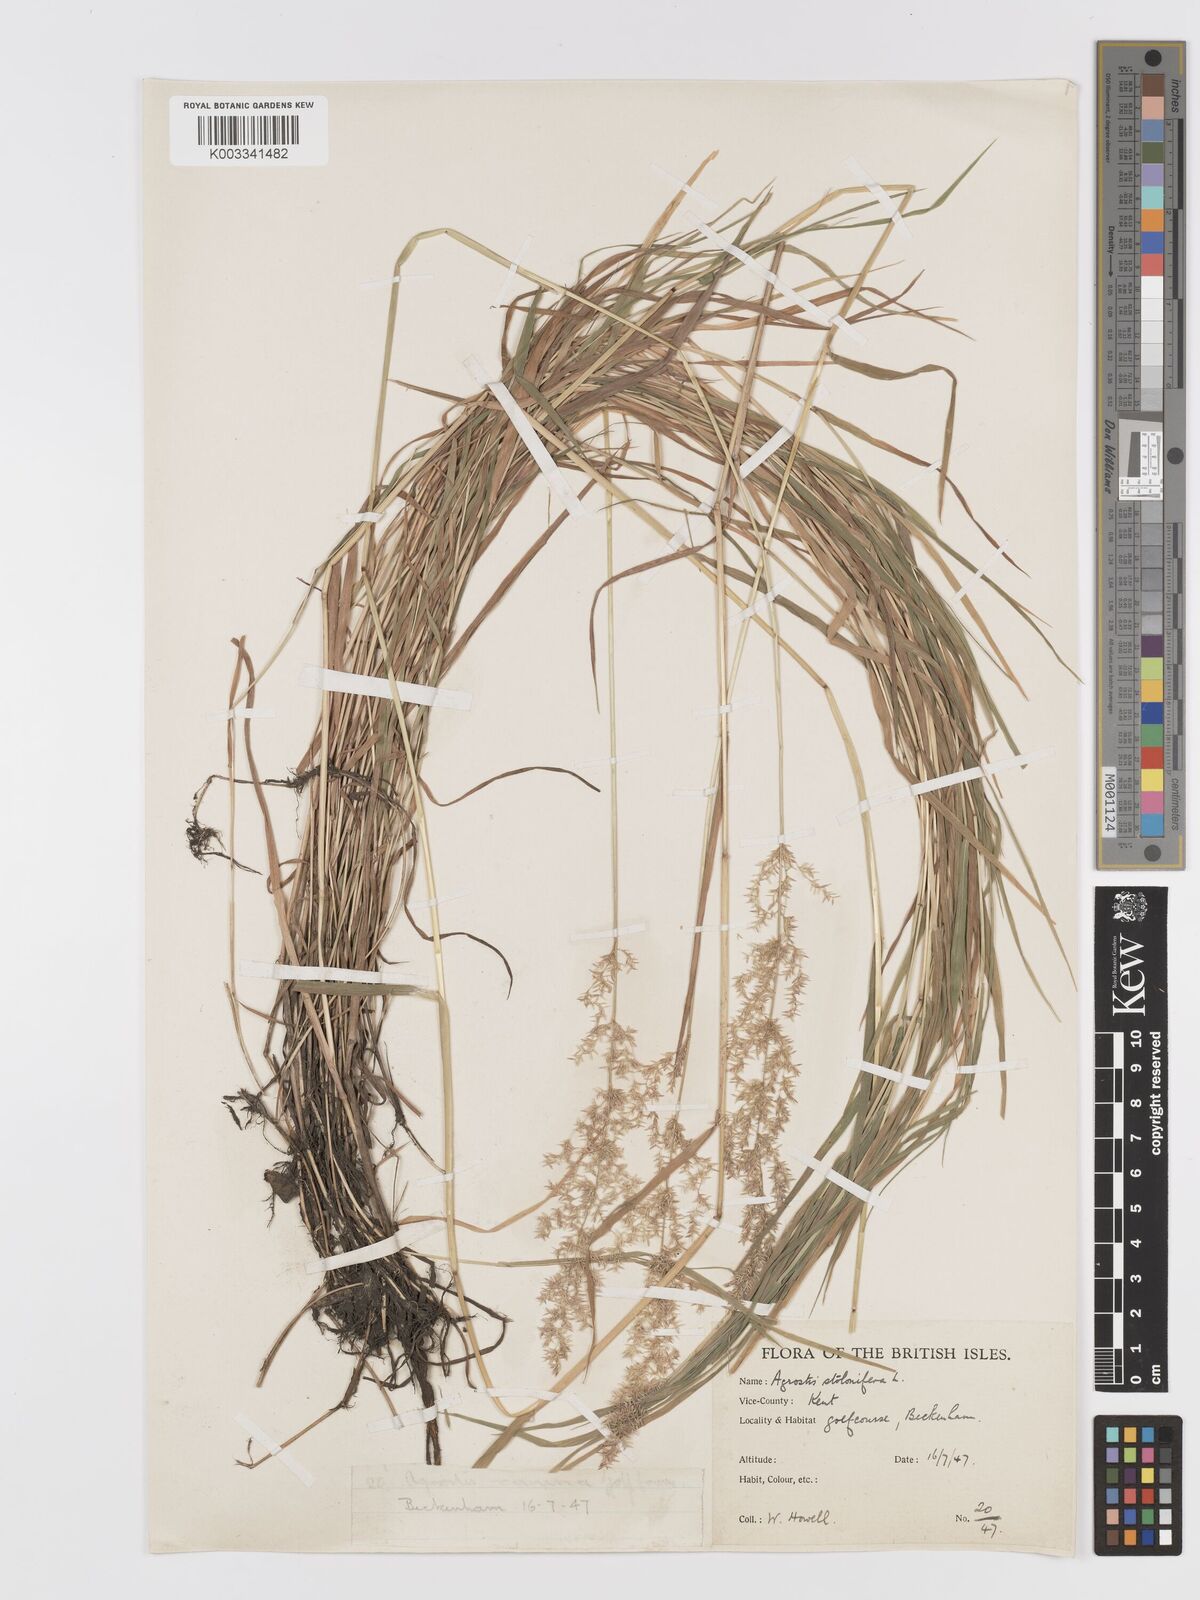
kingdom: Plantae
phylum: Tracheophyta
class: Liliopsida
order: Poales
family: Poaceae
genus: Agrostis
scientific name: Agrostis stolonifera
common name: Creeping bentgrass
